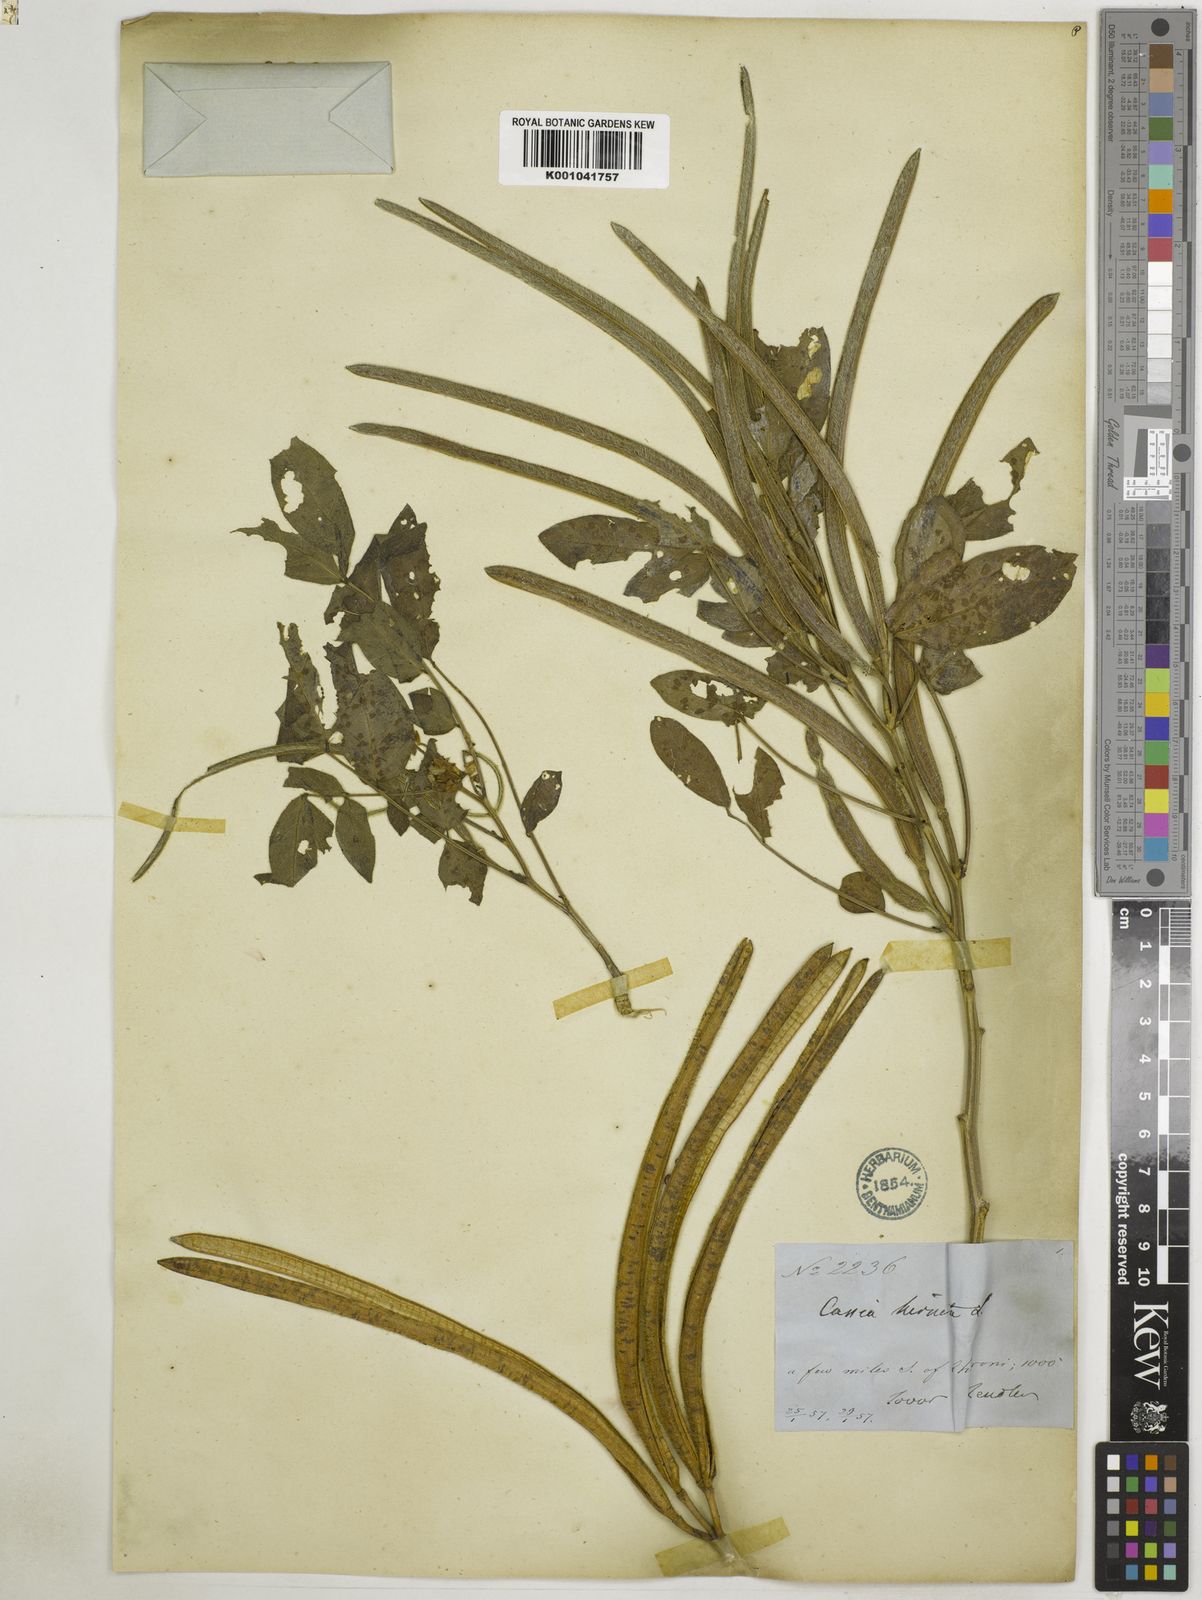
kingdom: Plantae
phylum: Tracheophyta
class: Magnoliopsida
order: Fabales
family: Fabaceae
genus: Senna
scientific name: Senna hirsuta
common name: Woolly senna
